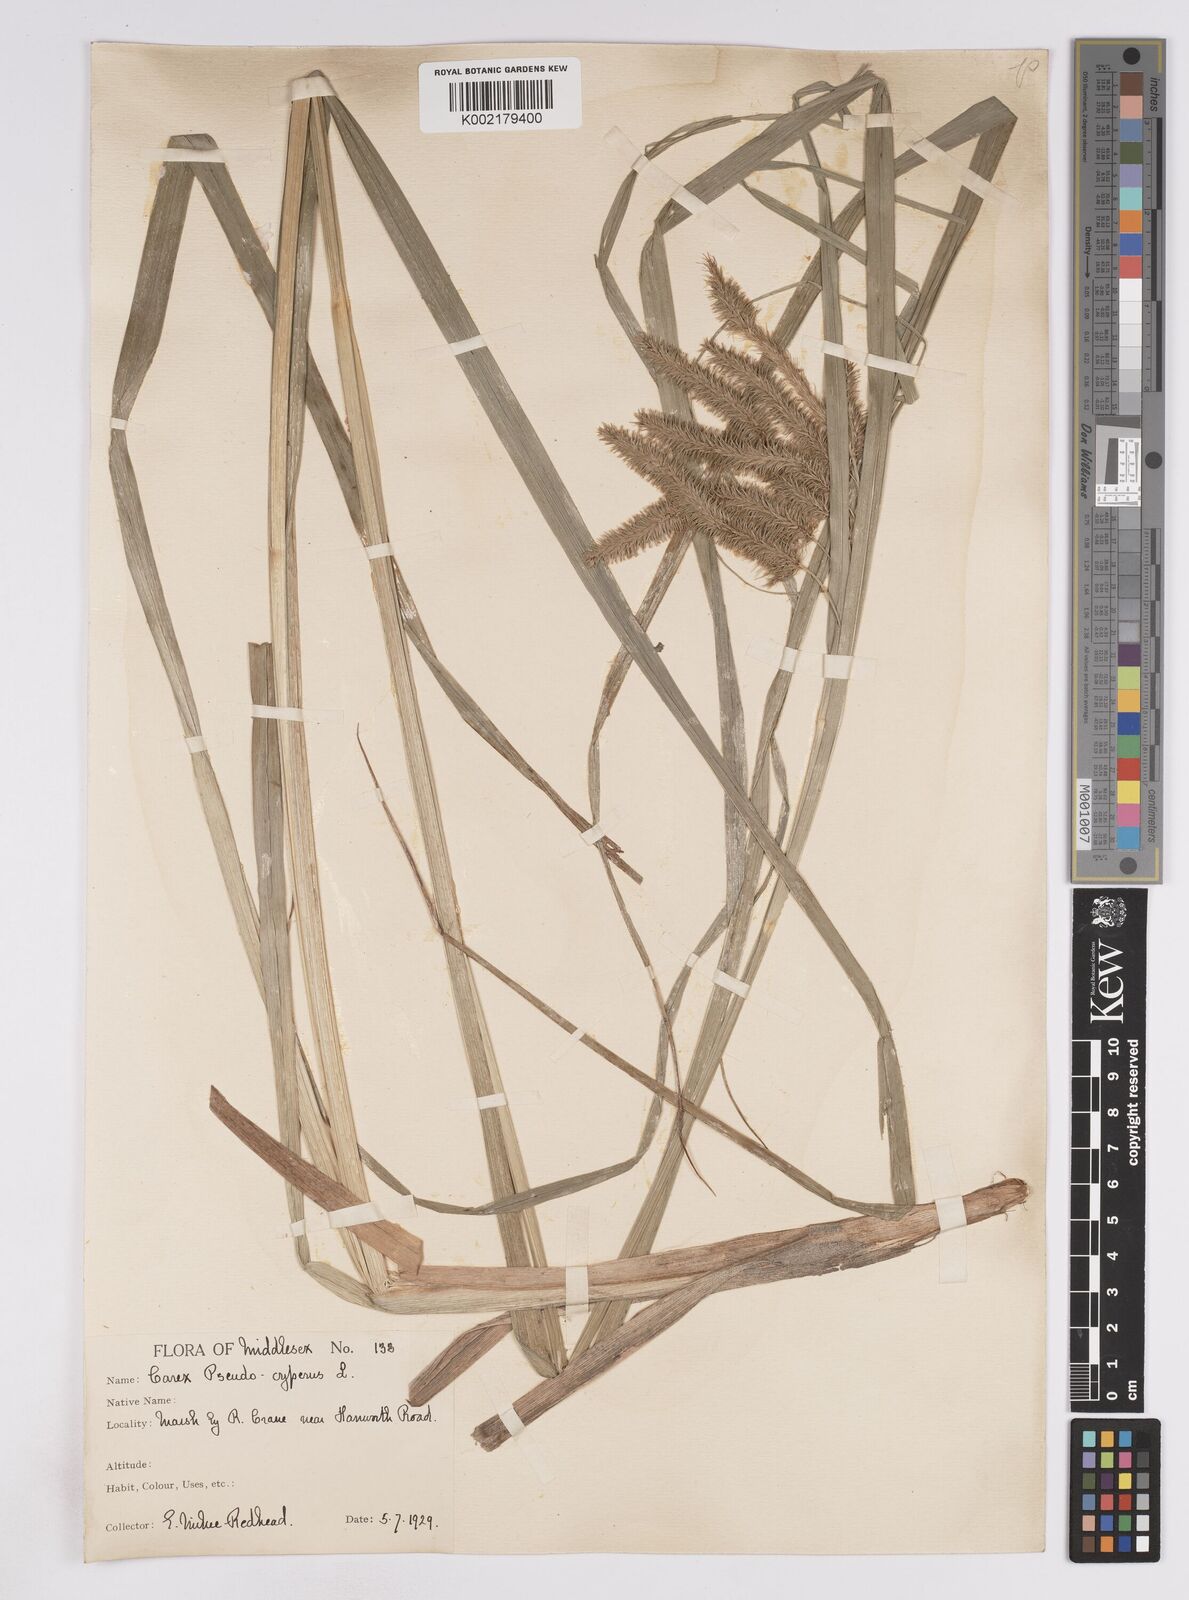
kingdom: Plantae
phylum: Tracheophyta
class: Liliopsida
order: Poales
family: Cyperaceae
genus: Carex
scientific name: Carex pseudocyperus
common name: Cyperus sedge
